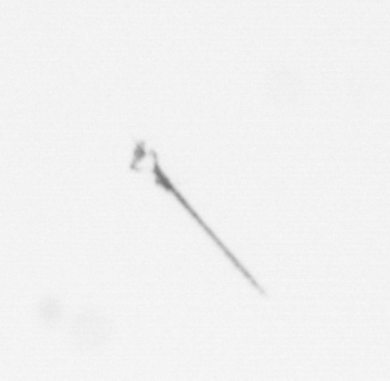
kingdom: Chromista
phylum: Ochrophyta
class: Bacillariophyceae
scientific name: Bacillariophyceae
